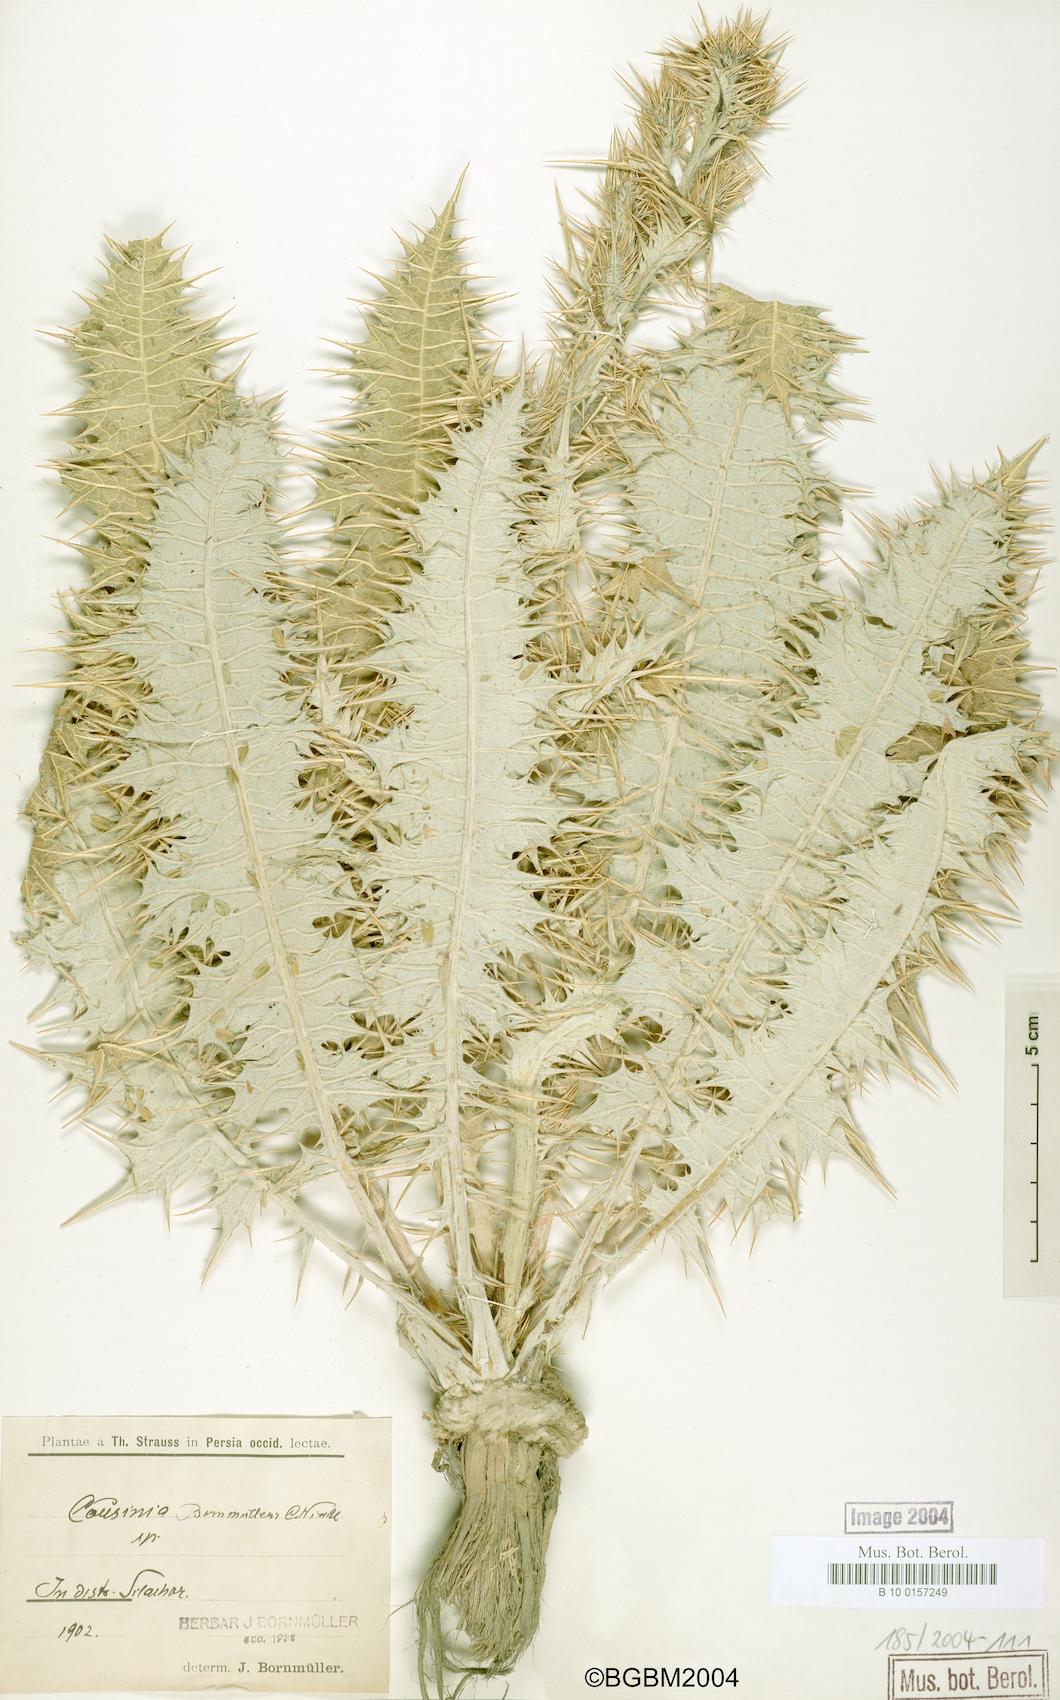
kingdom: Plantae
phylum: Tracheophyta
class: Magnoliopsida
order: Asterales
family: Asteraceae
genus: Cousinia
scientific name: Cousinia onopordioides
